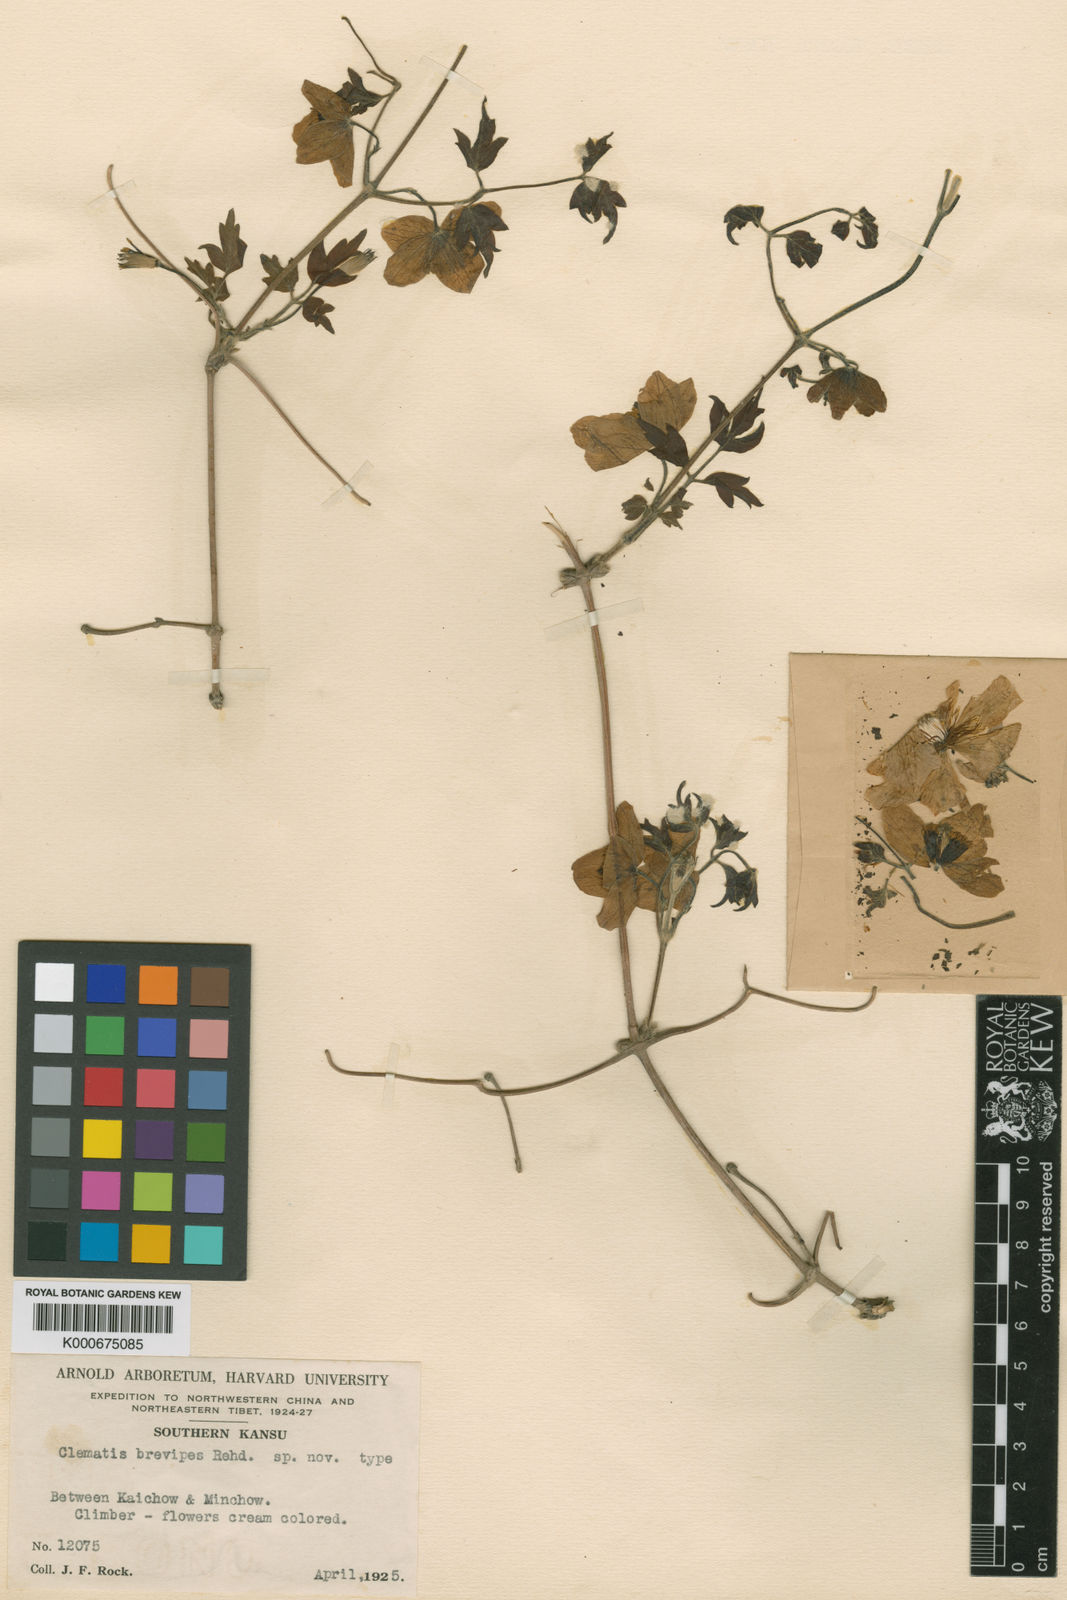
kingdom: Plantae
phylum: Tracheophyta
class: Magnoliopsida
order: Ranunculales
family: Ranunculaceae
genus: Clematis
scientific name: Clematis brevipes
